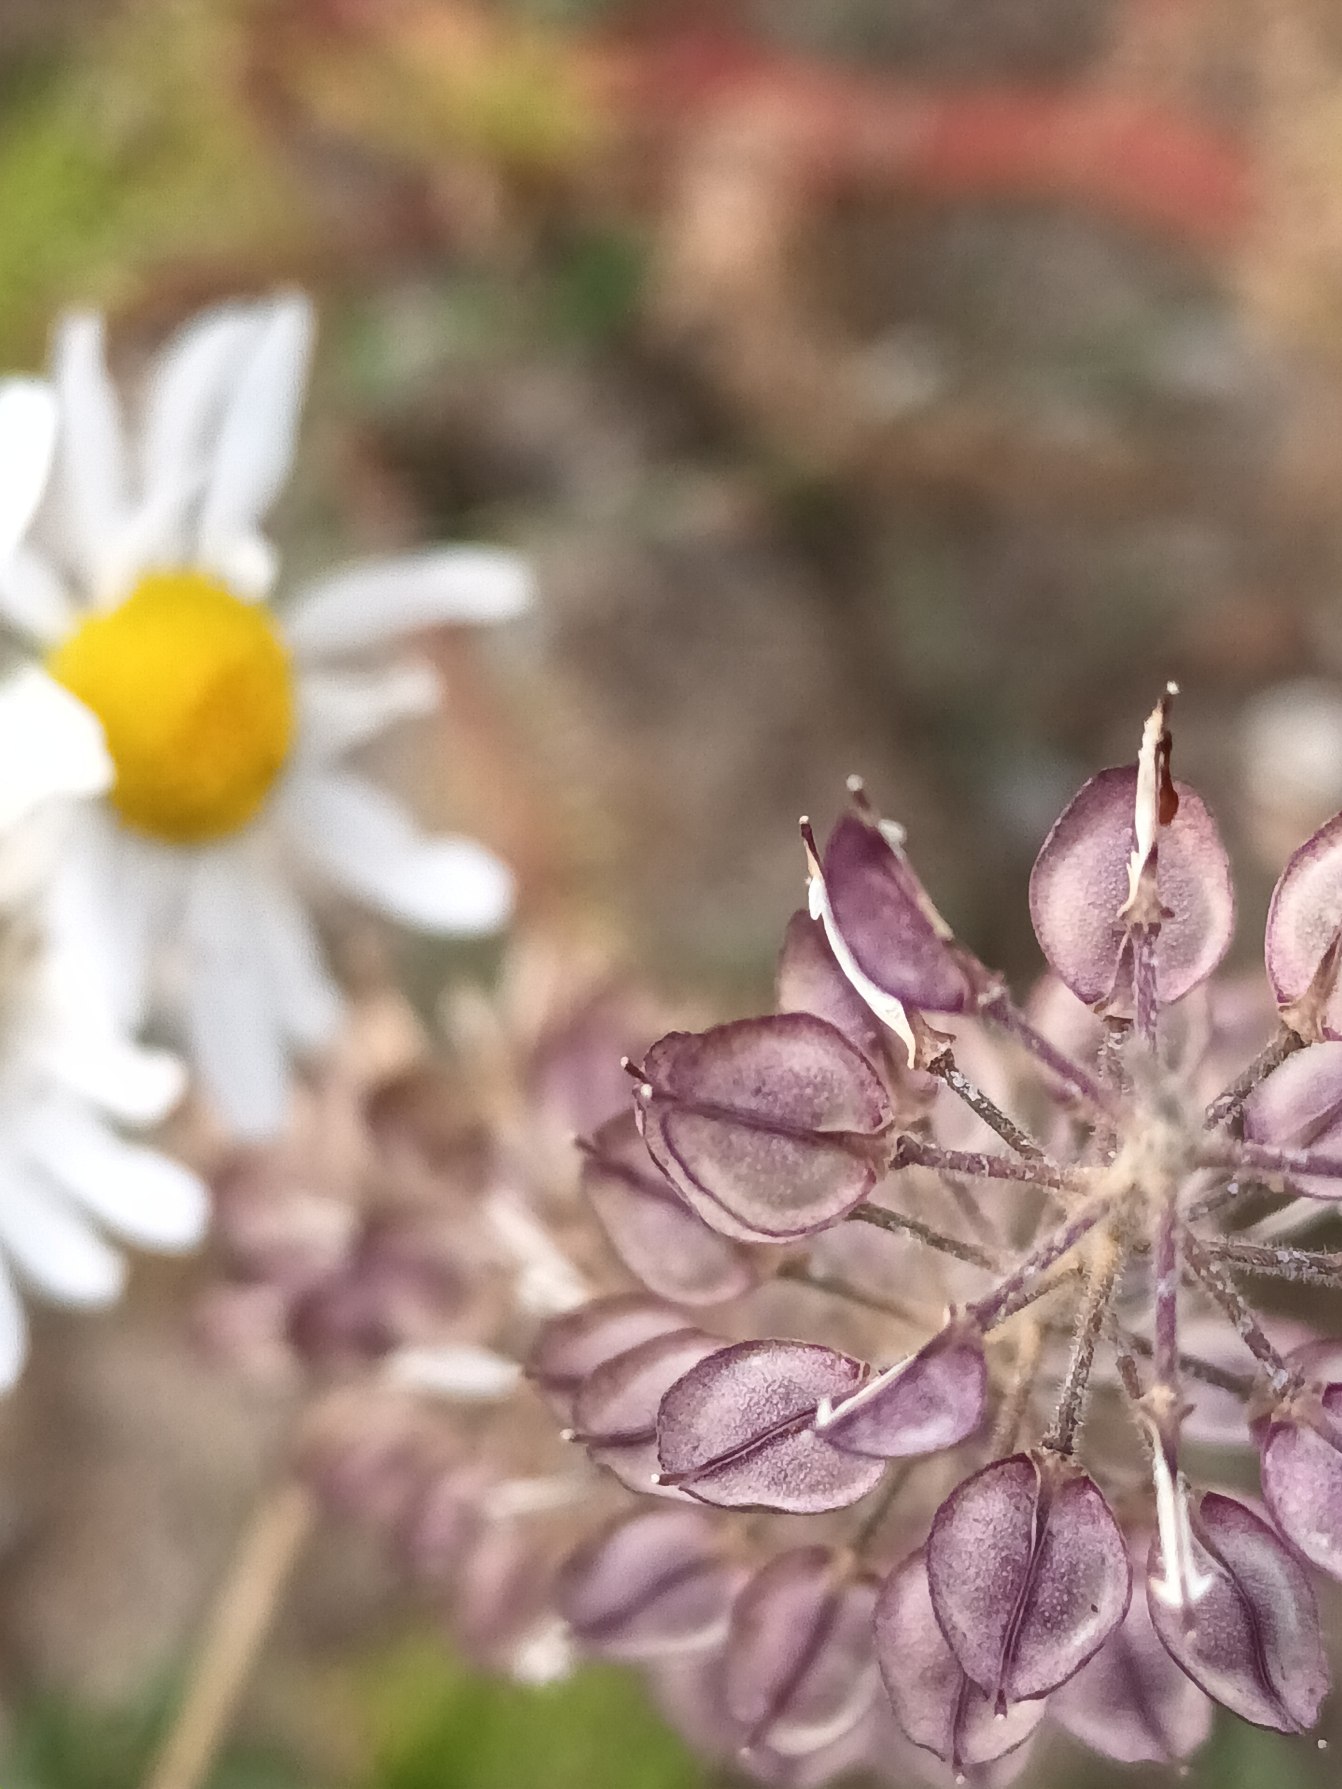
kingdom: Plantae
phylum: Tracheophyta
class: Magnoliopsida
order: Brassicales
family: Brassicaceae
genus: Lepidium
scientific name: Lepidium heterophyllum
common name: Forskelligbladet karse
